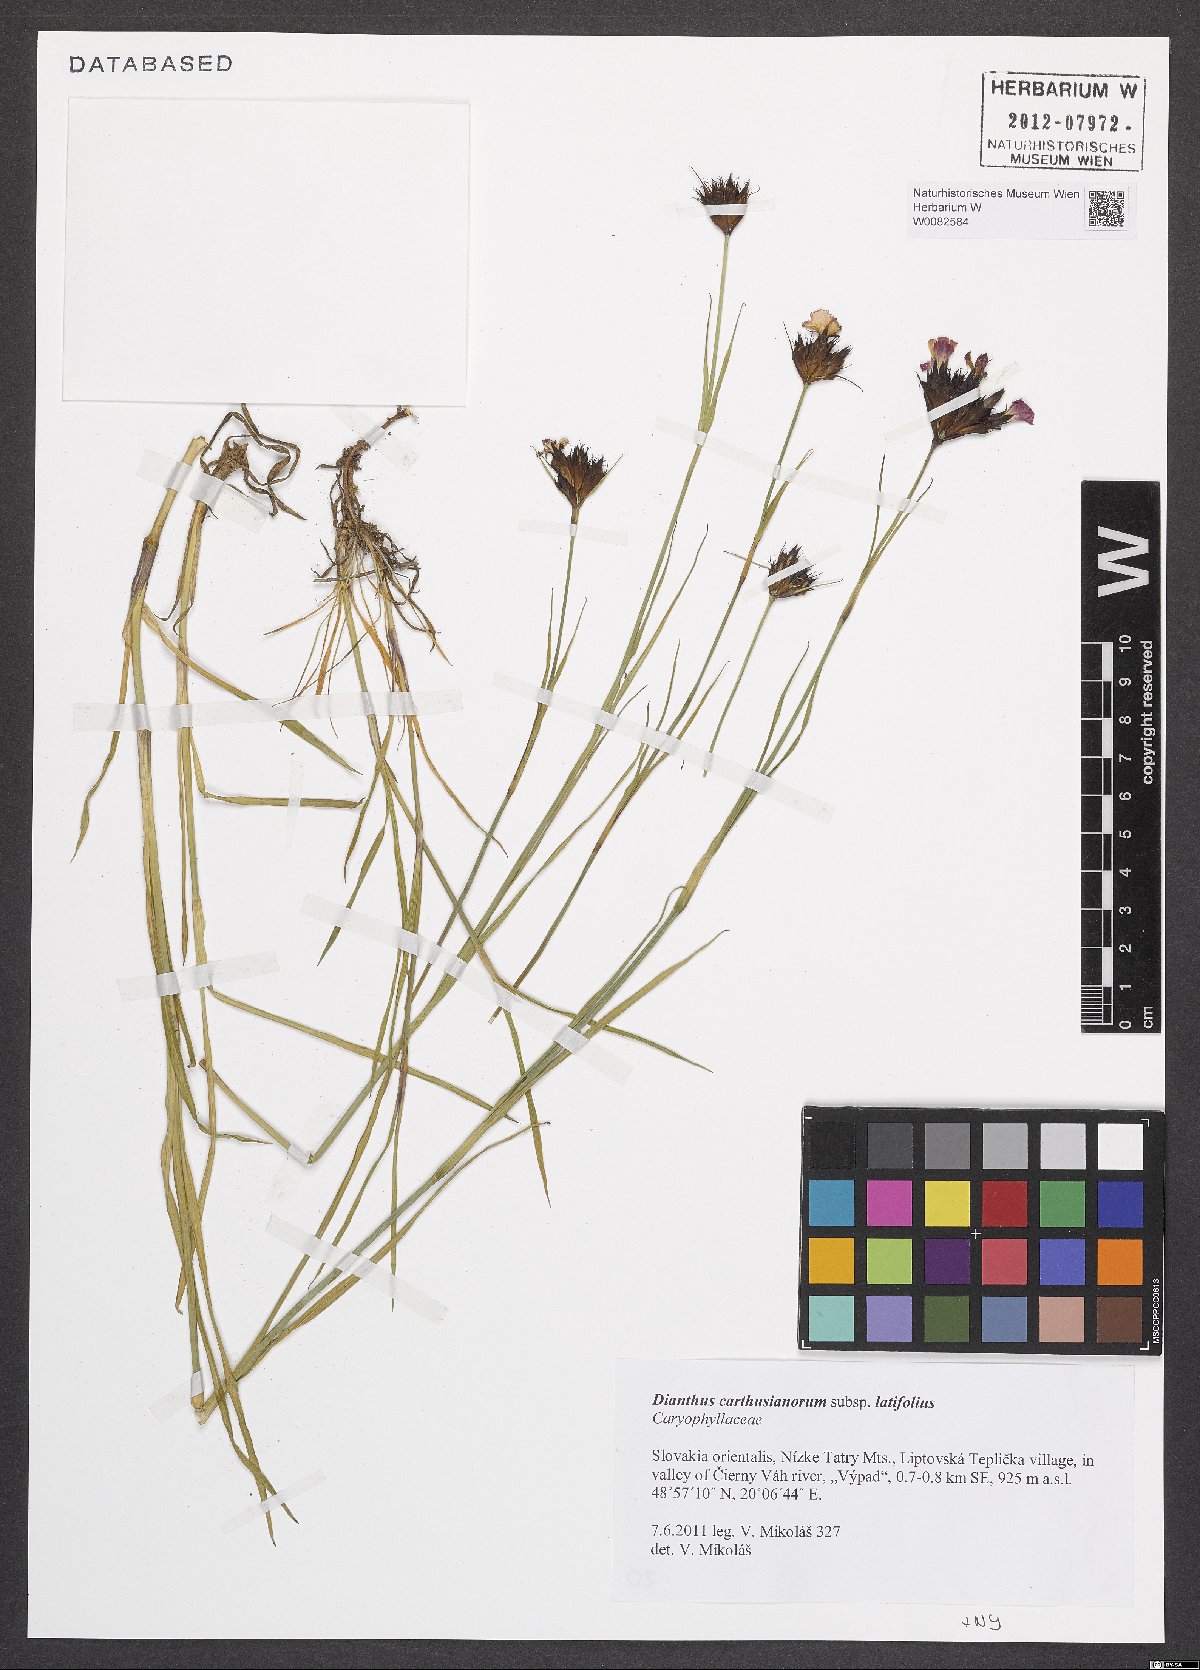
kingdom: Plantae
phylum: Tracheophyta
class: Magnoliopsida
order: Caryophyllales
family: Caryophyllaceae
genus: Dianthus
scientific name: Dianthus carthusianorum
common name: Carthusian pink
